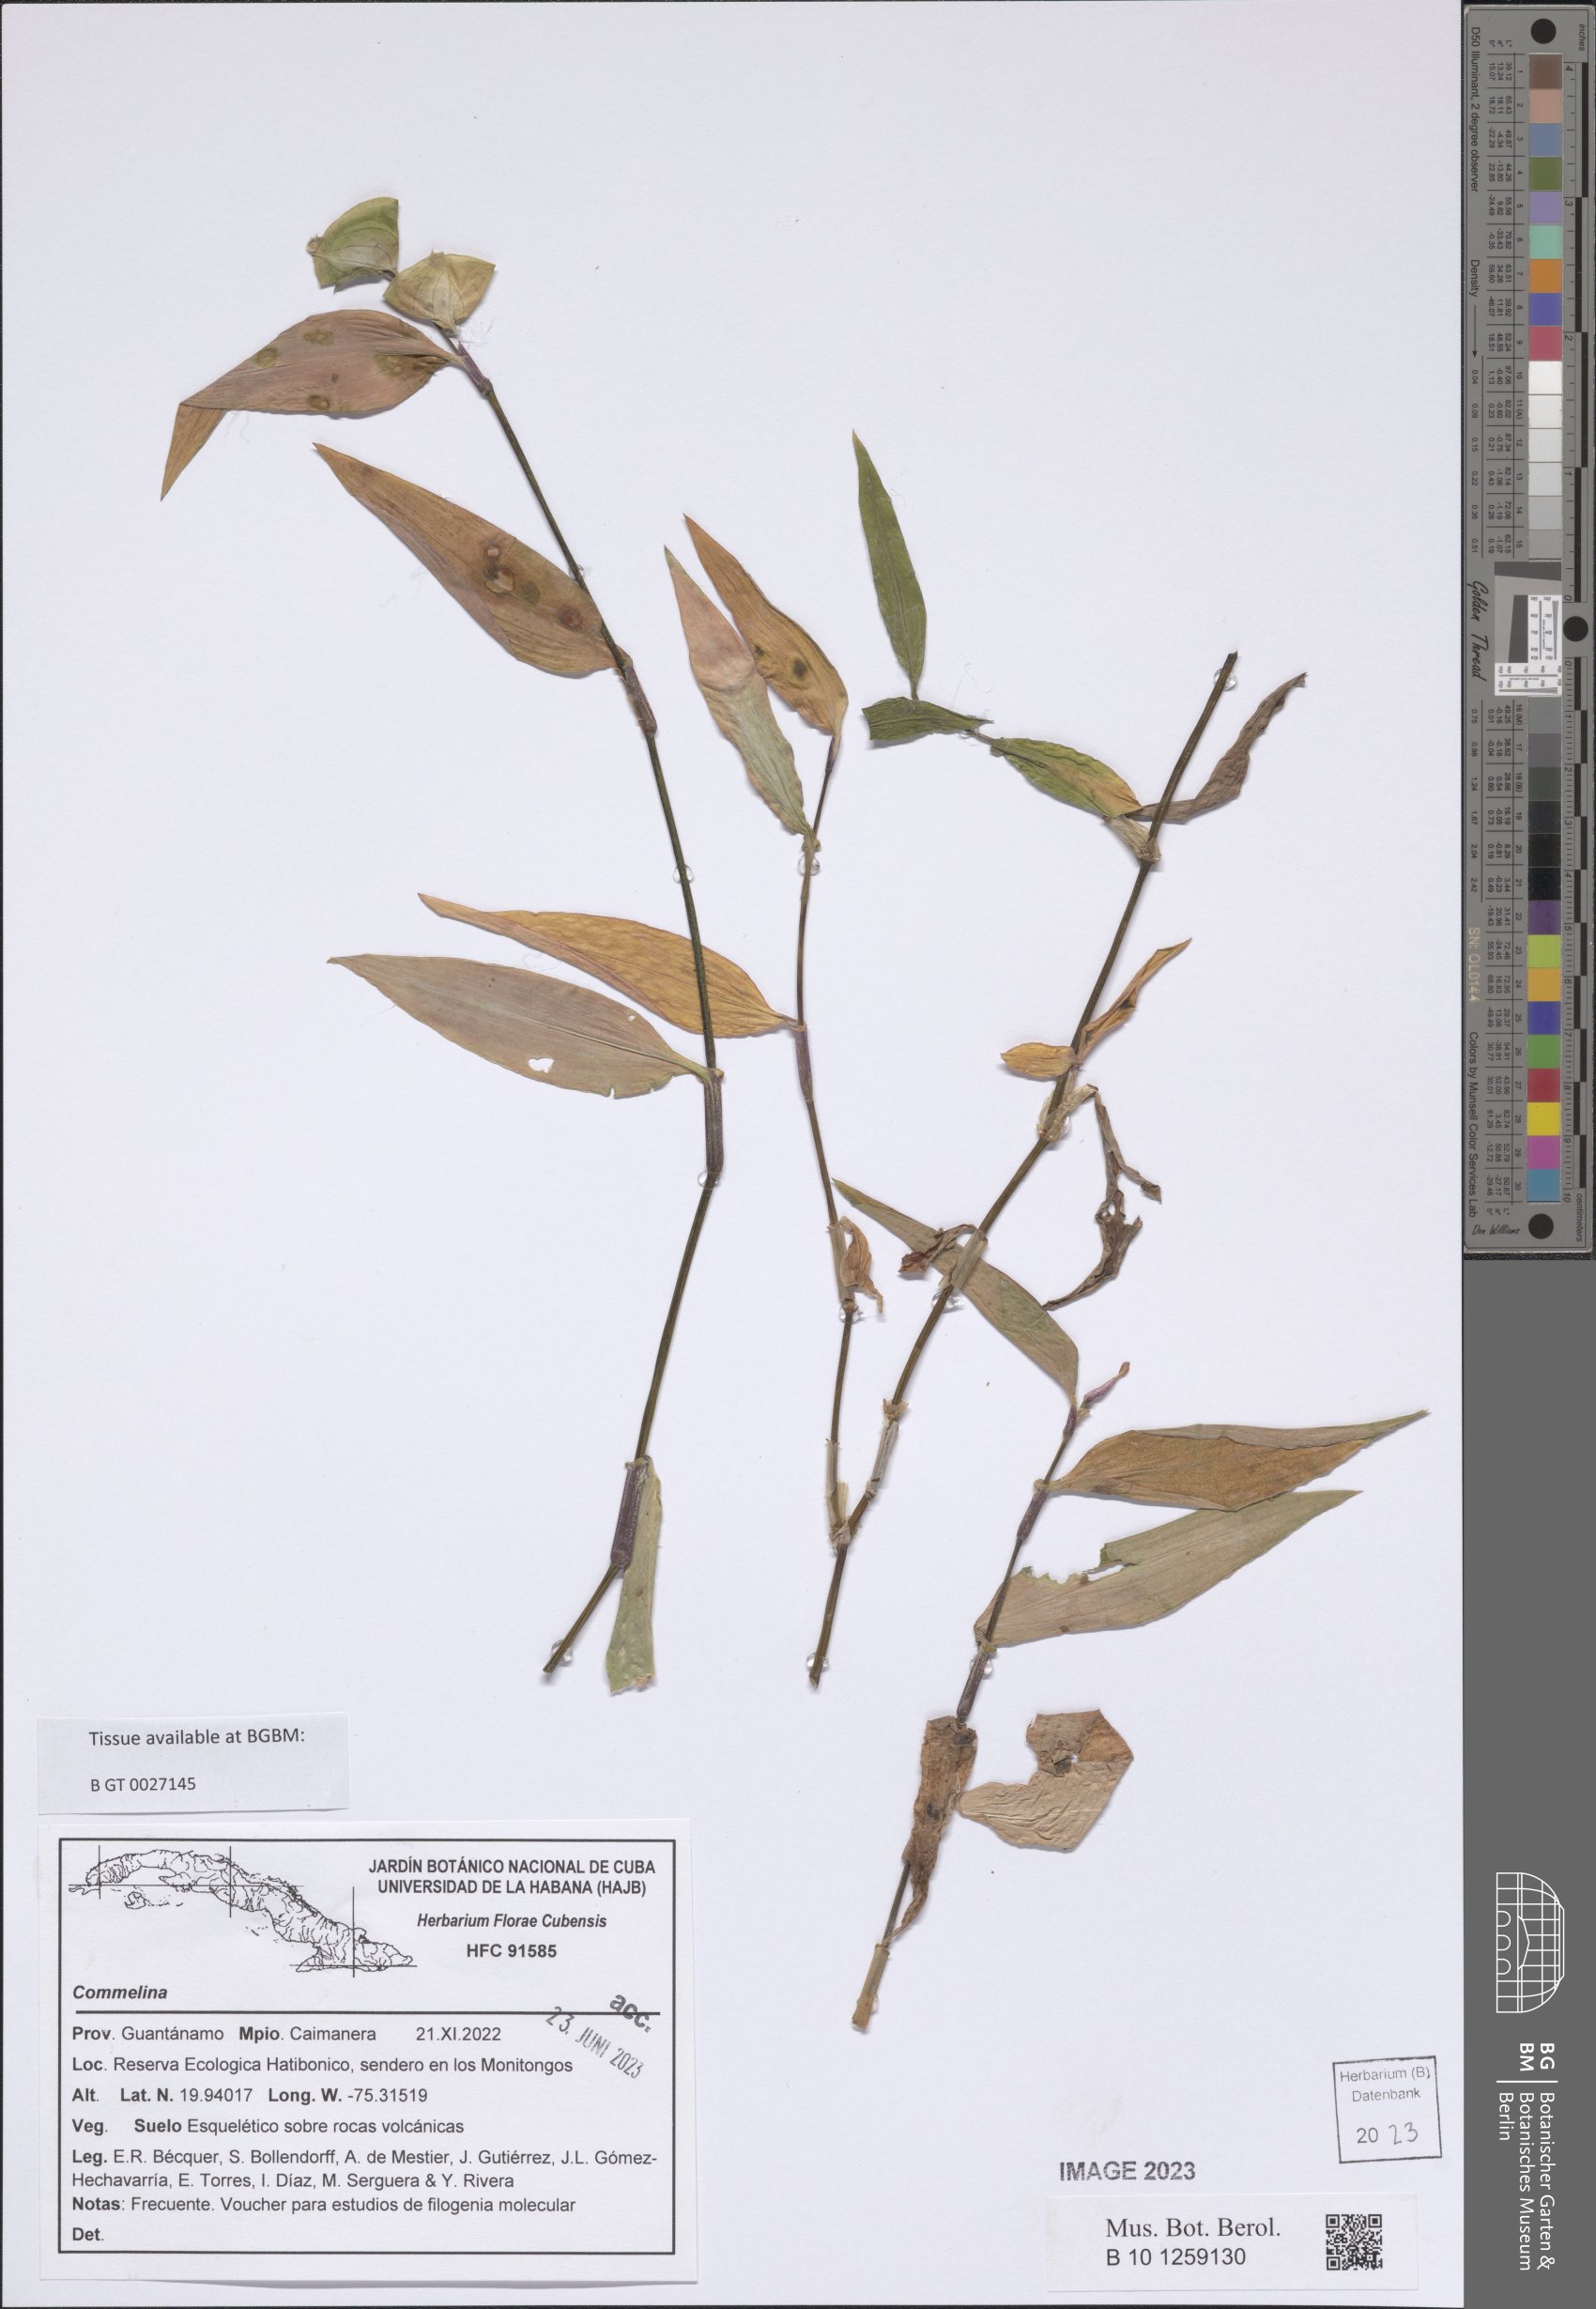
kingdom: Plantae
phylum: Tracheophyta
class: Liliopsida
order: Commelinales
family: Commelinaceae
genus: Commelina
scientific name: Commelina
